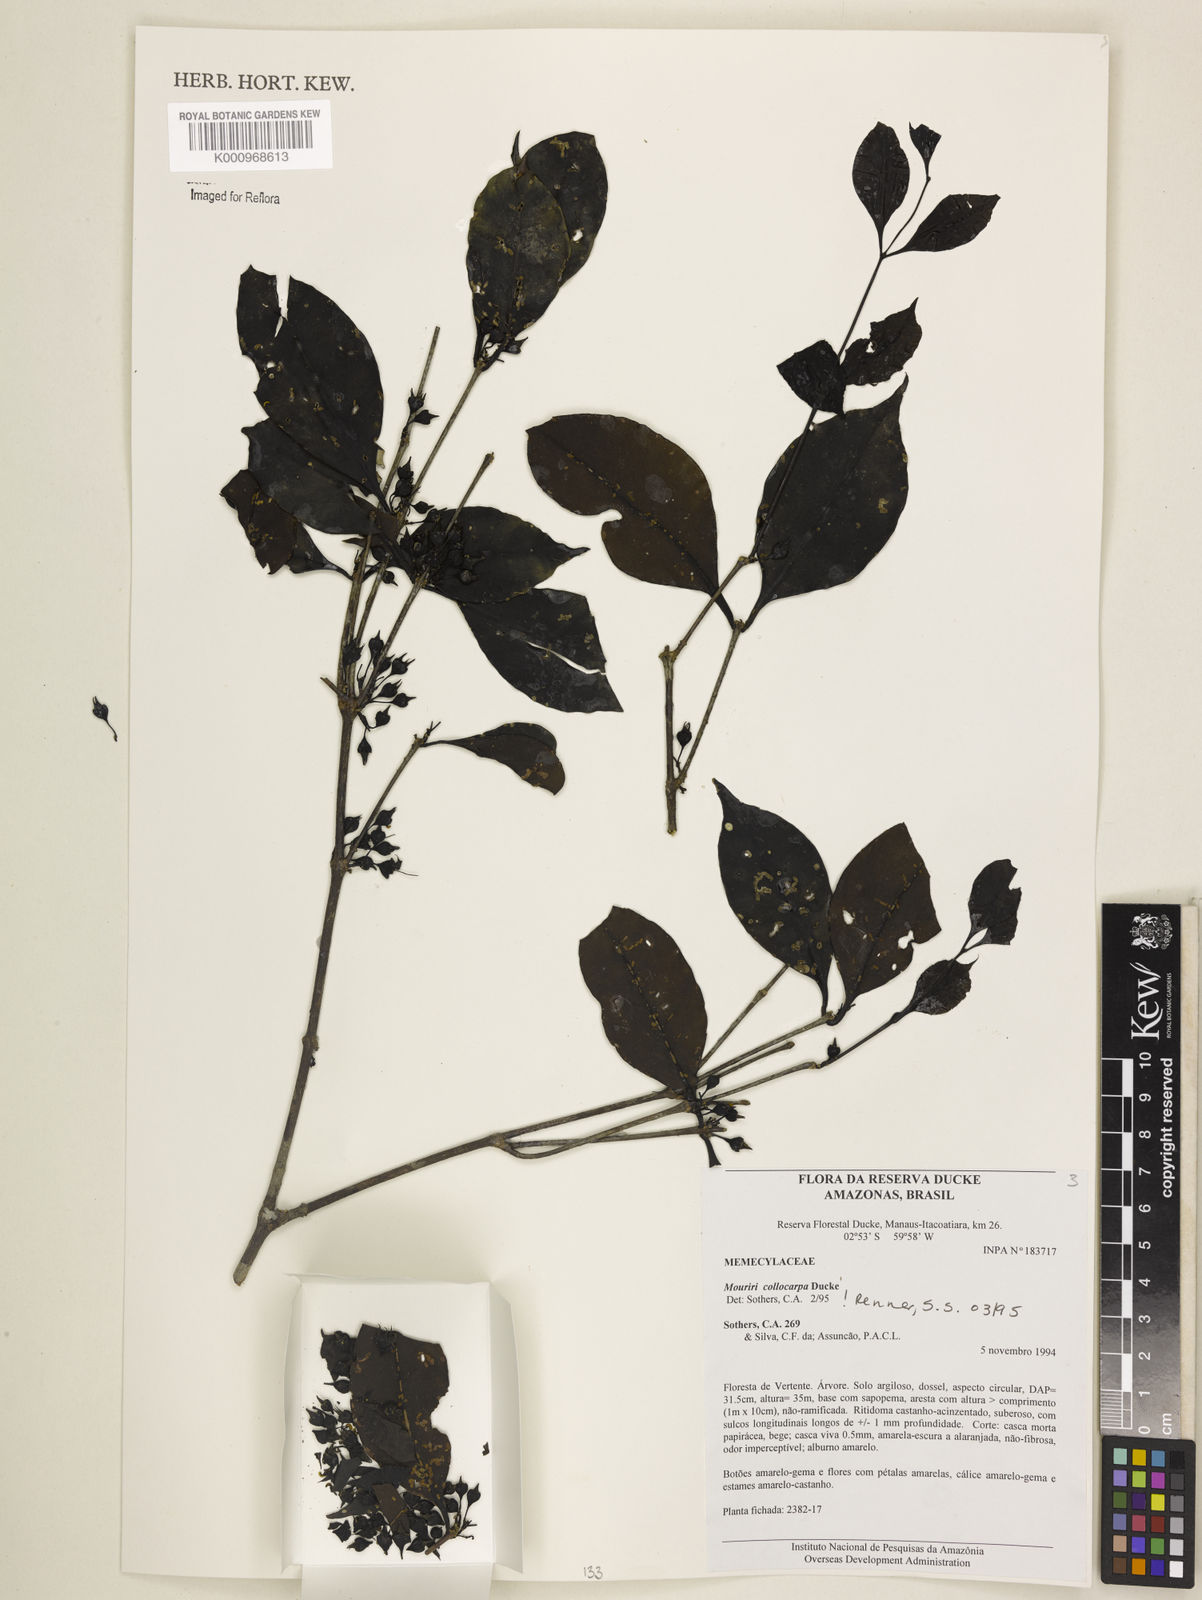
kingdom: Plantae
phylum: Tracheophyta
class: Magnoliopsida
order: Myrtales
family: Melastomataceae
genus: Mouriri
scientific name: Mouriri collocarpa
